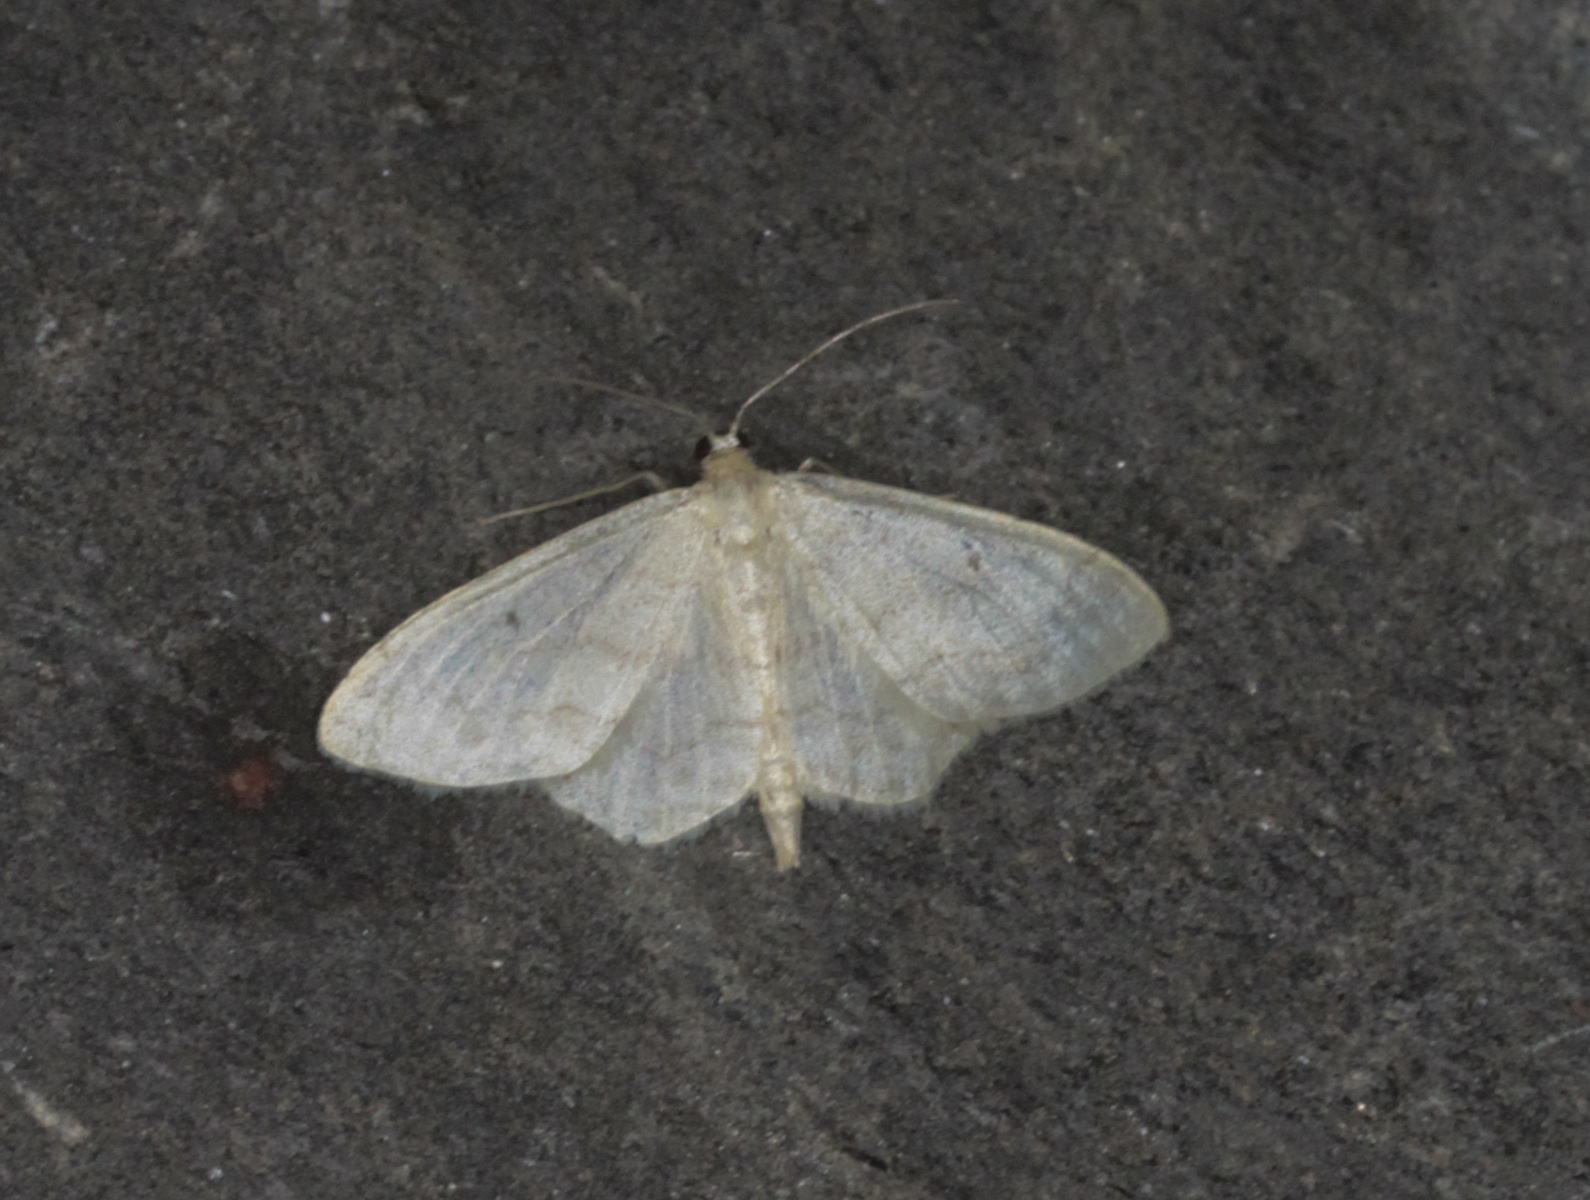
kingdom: Animalia
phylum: Arthropoda
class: Insecta
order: Lepidoptera
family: Geometridae
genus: Idaea
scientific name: Idaea biselata
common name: Small fan-footed wave
